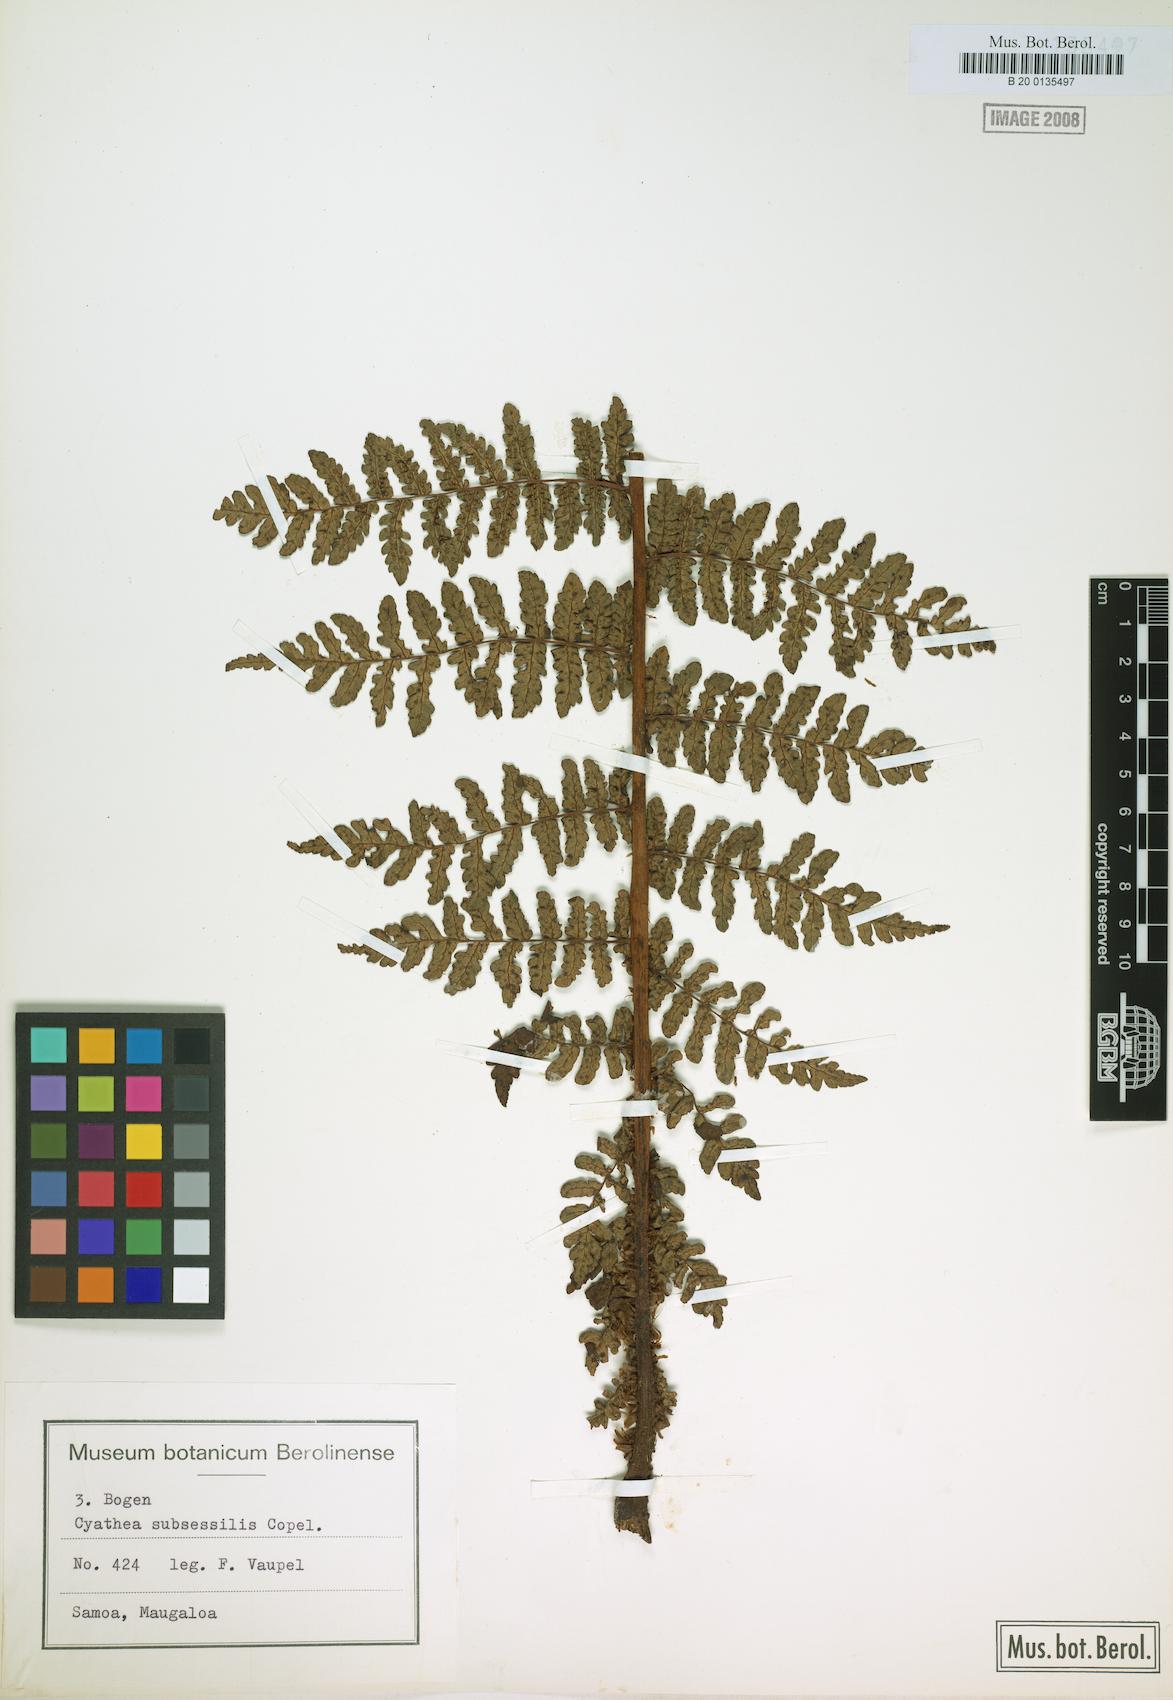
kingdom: Plantae
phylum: Tracheophyta
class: Polypodiopsida
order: Cyatheales
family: Cyatheaceae
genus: Sphaeropteris
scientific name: Sphaeropteris subsessilis
